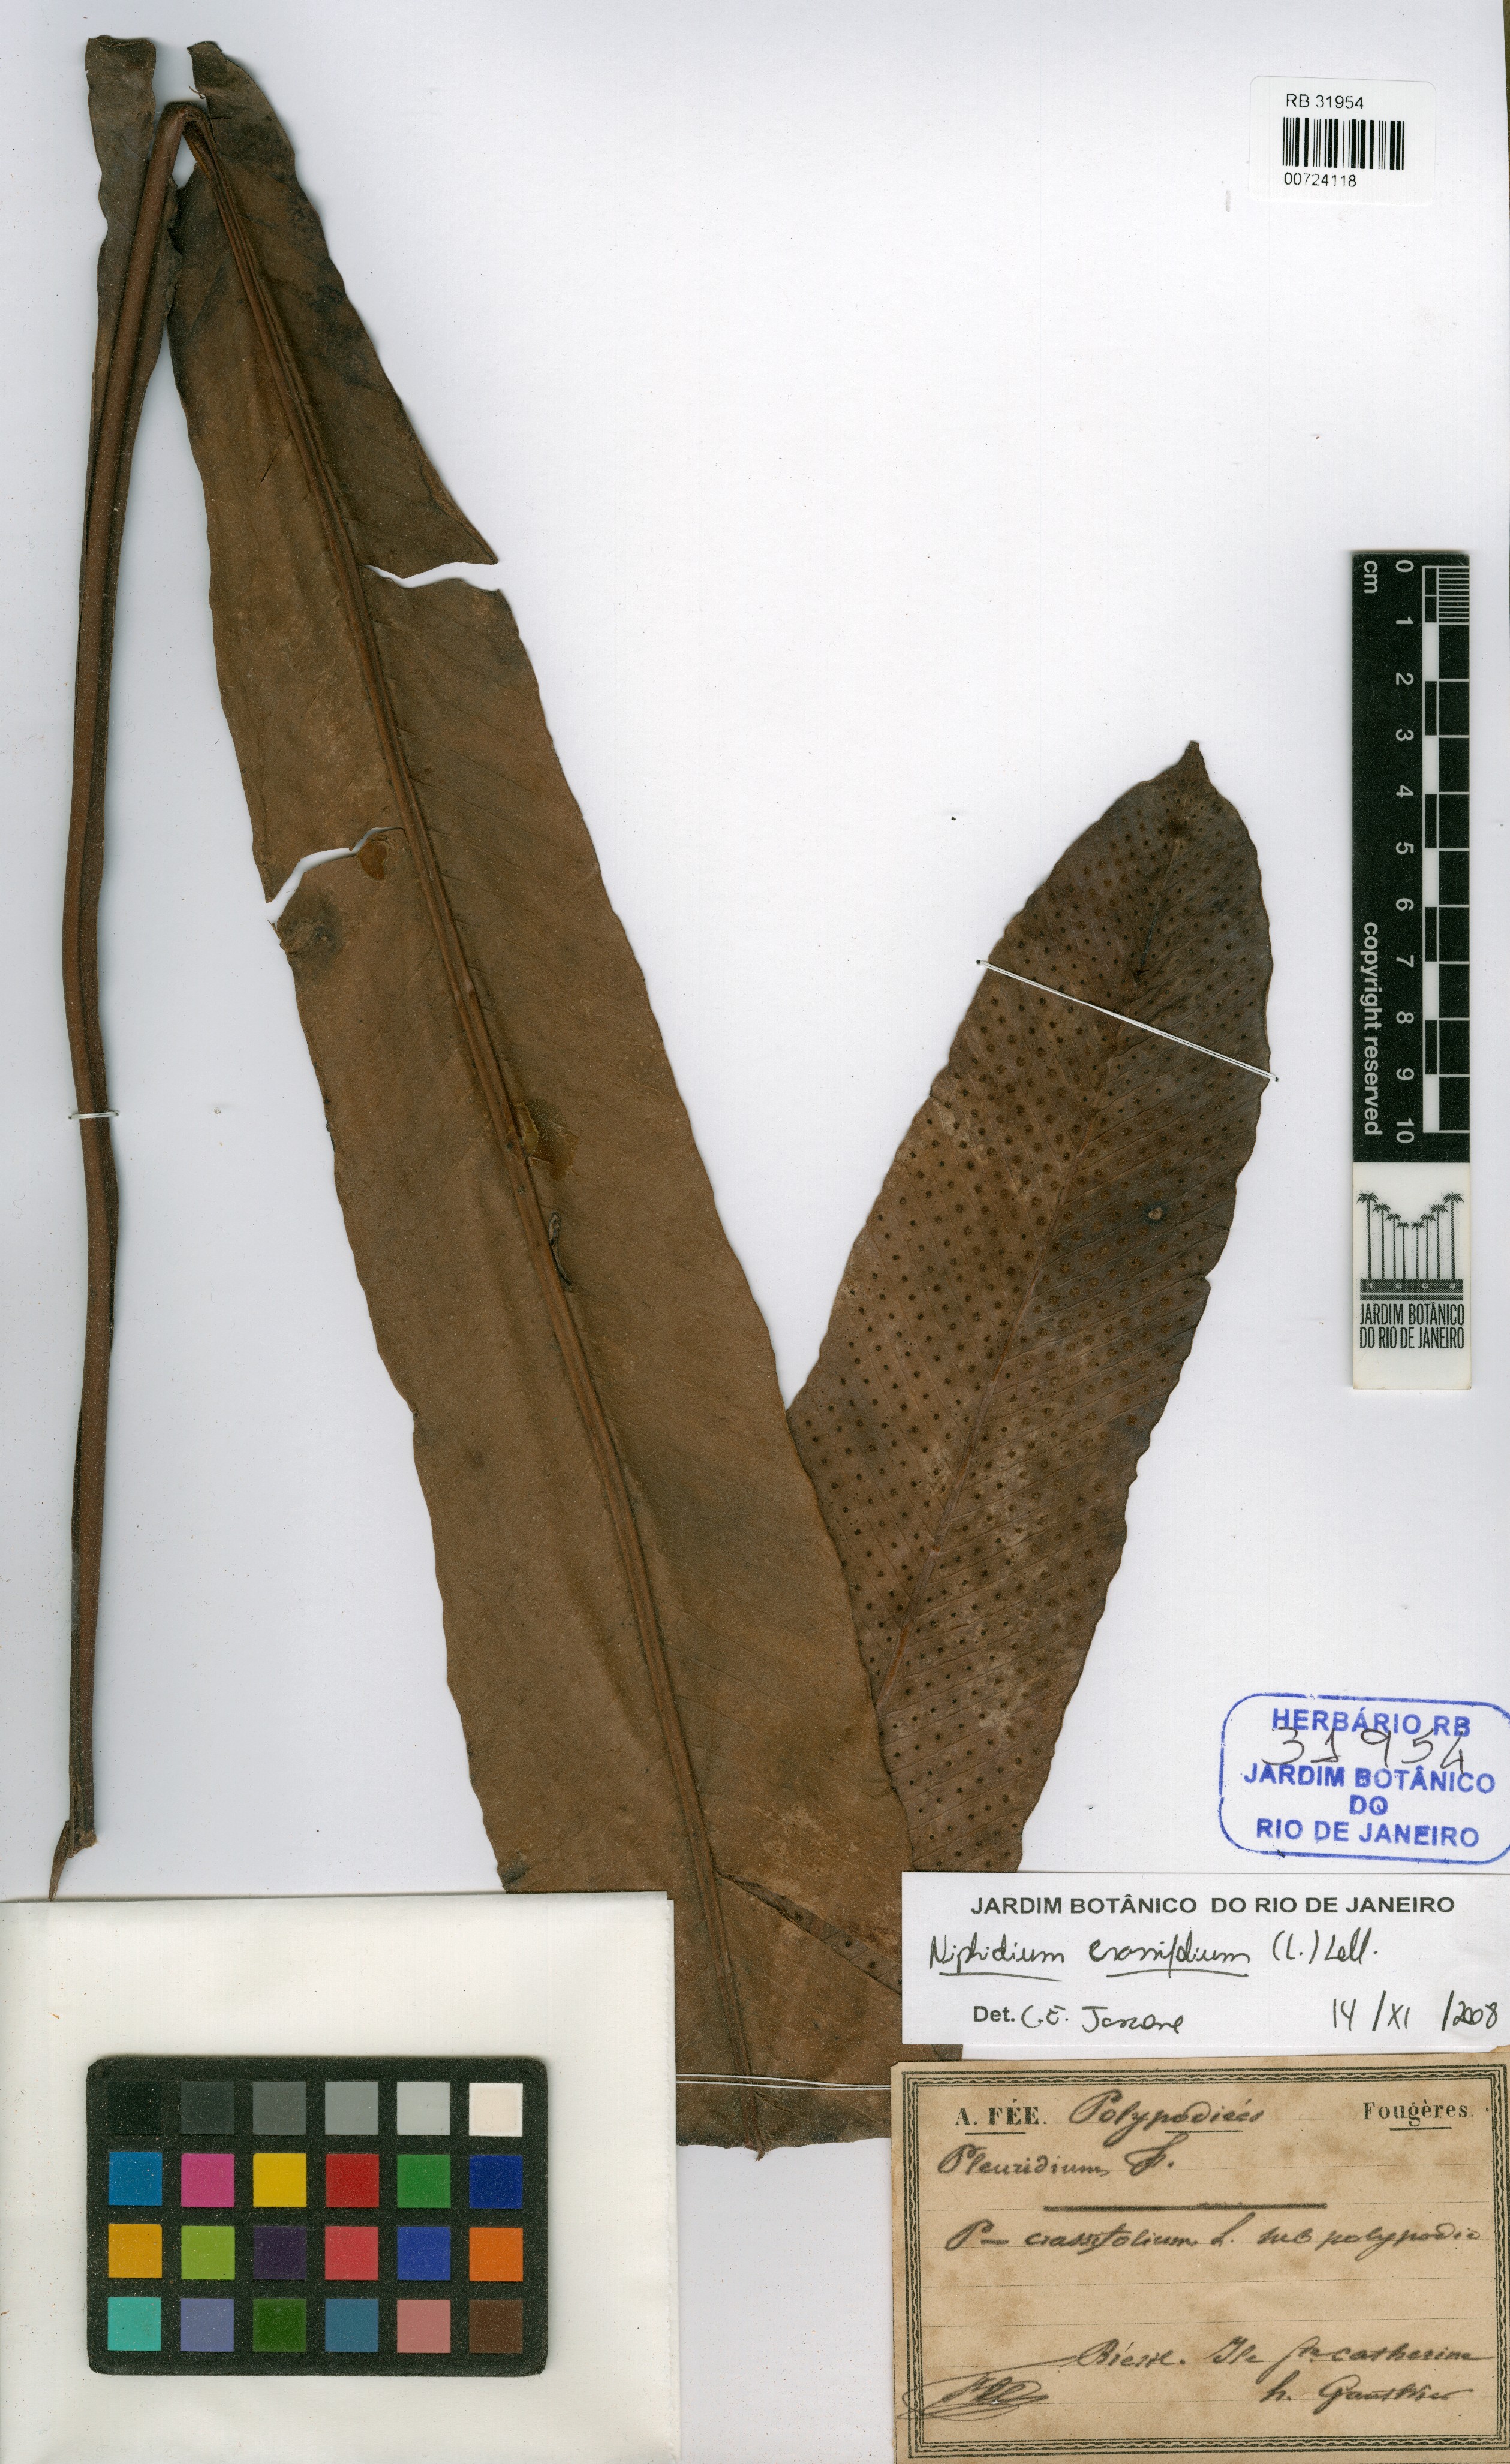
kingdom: Plantae
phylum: Tracheophyta
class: Polypodiopsida
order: Polypodiales
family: Polypodiaceae
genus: Niphidium
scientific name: Niphidium crassifolium
